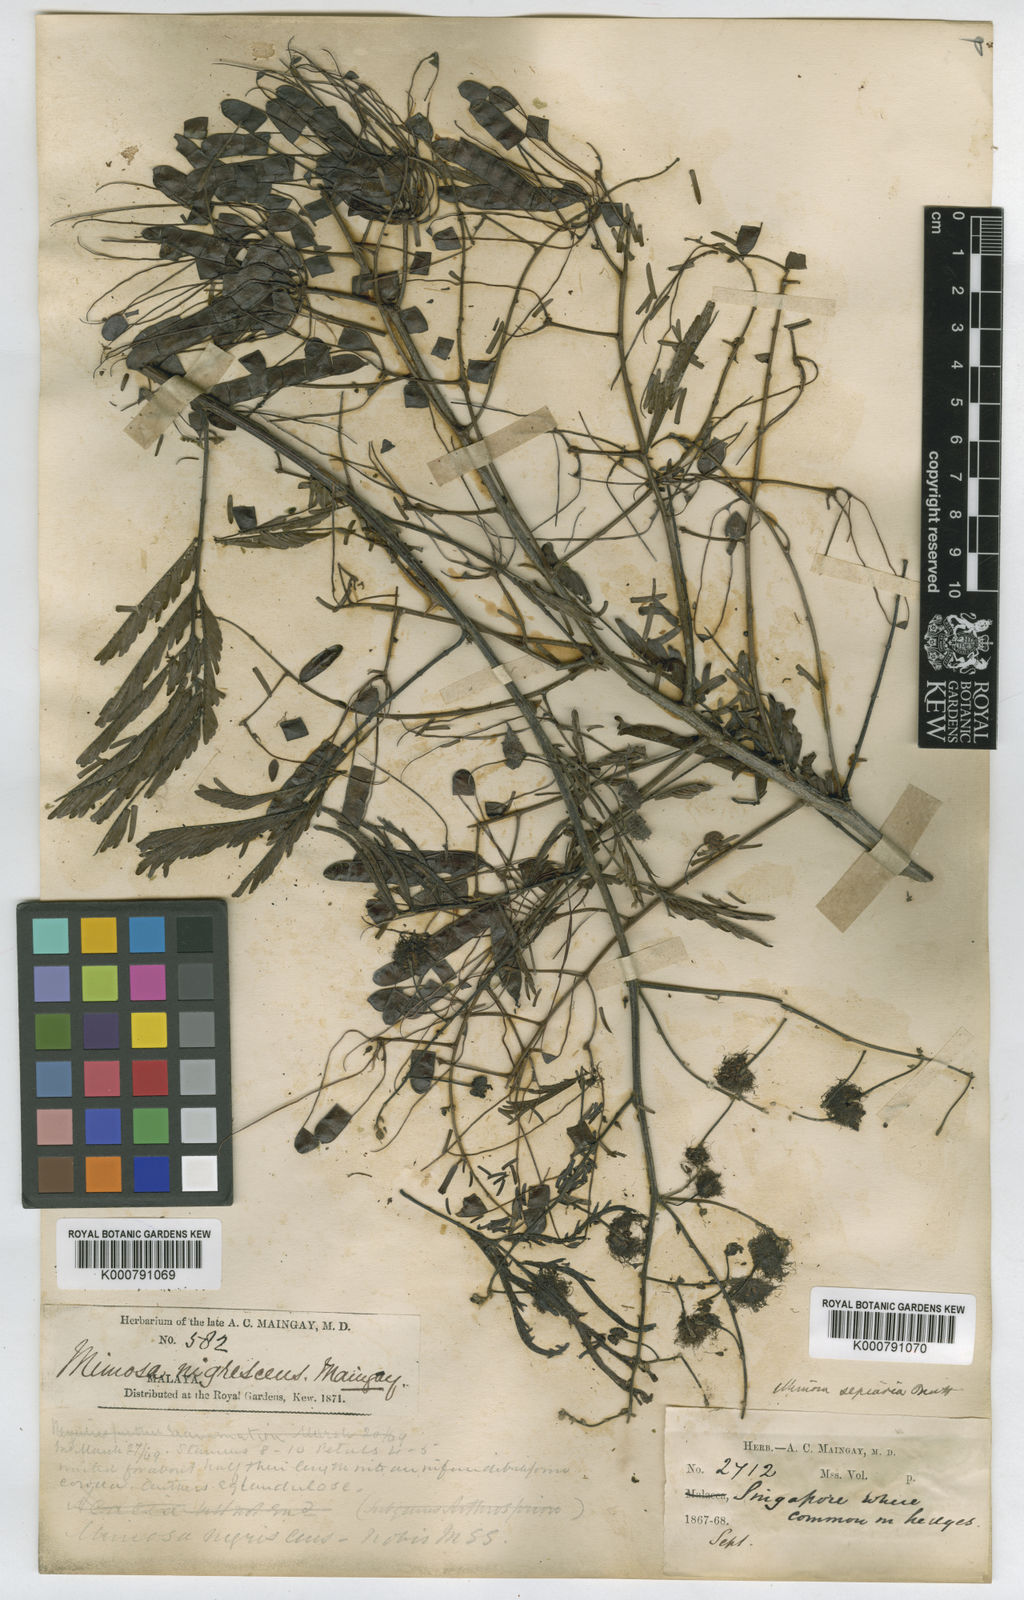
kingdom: Plantae
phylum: Tracheophyta
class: Magnoliopsida
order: Fabales
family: Fabaceae
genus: Mimosa
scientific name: Mimosa bimucronata
